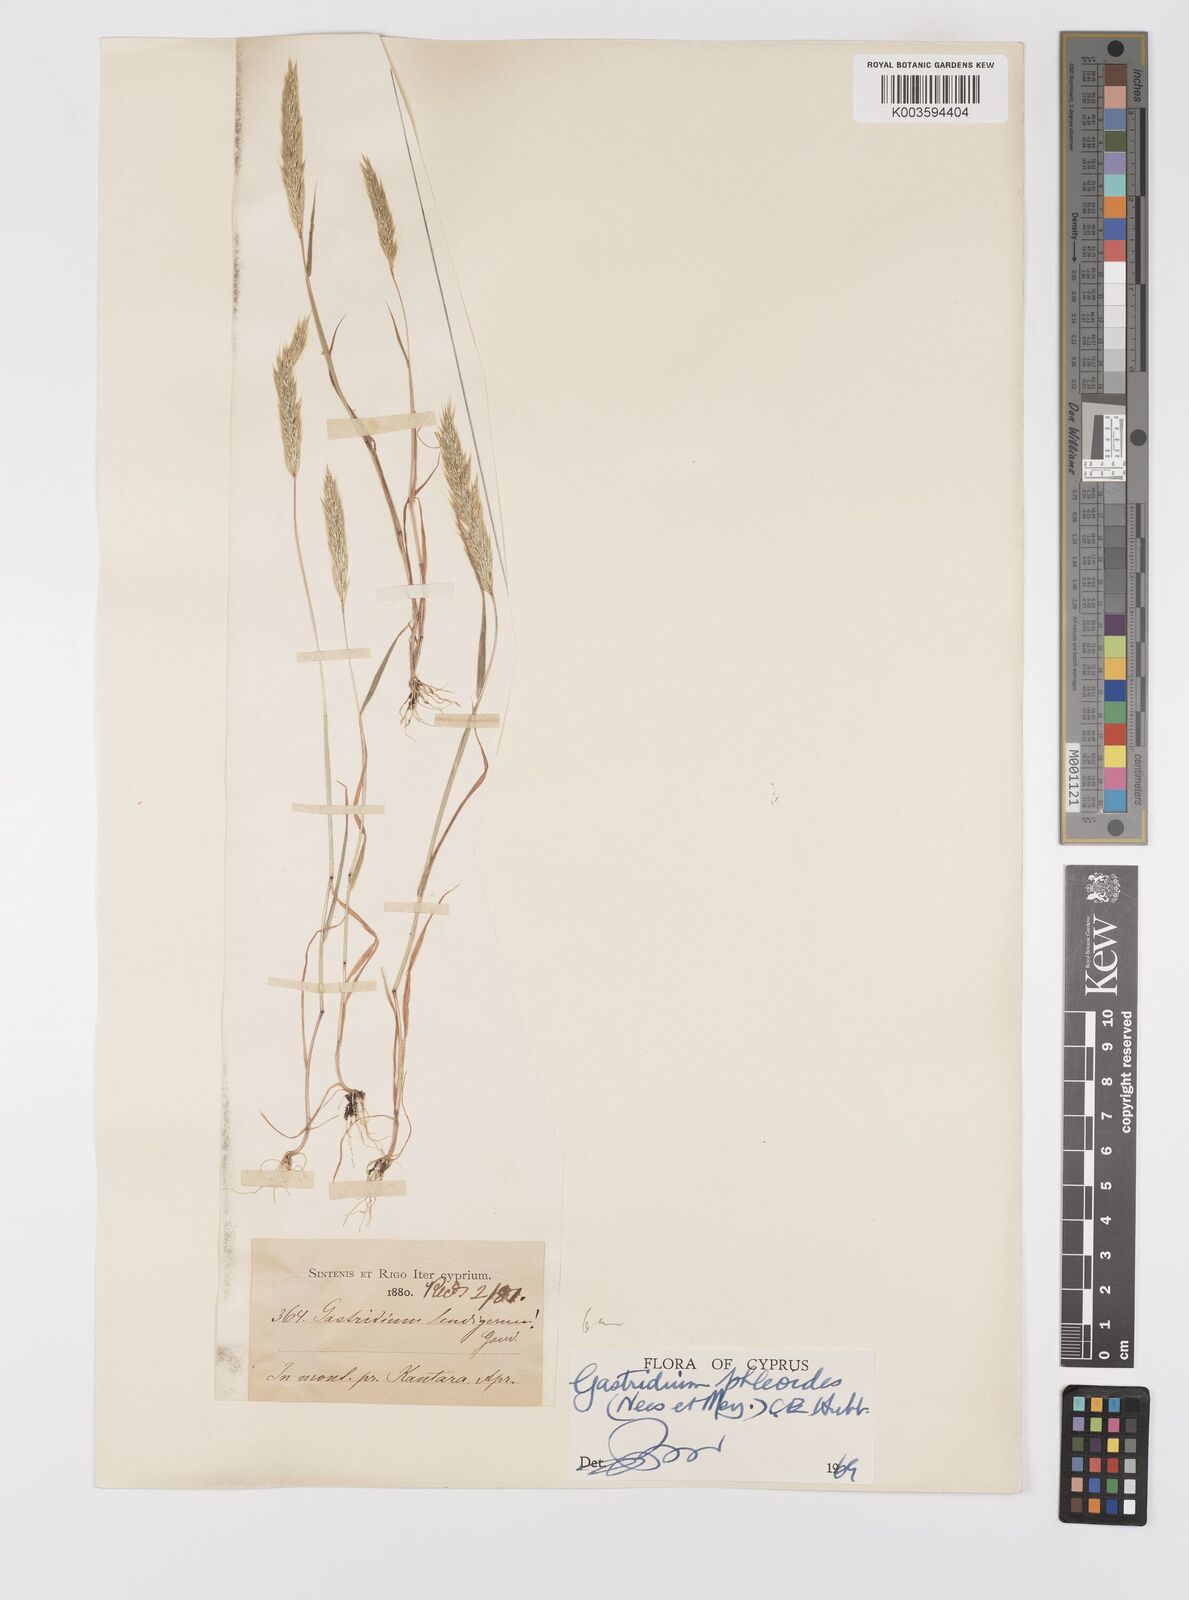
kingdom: Plantae
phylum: Tracheophyta
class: Liliopsida
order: Poales
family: Poaceae
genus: Gastridium
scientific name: Gastridium phleoides
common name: Nit grass
